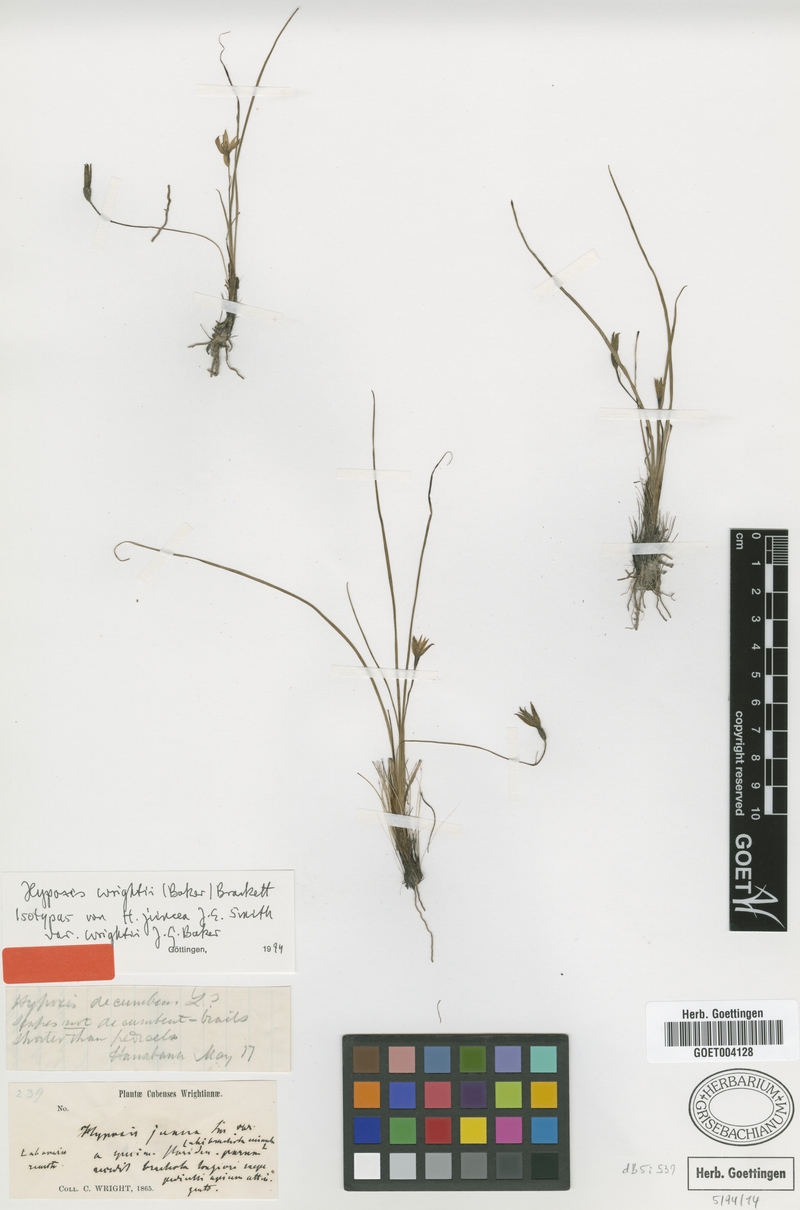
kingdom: Plantae
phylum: Tracheophyta
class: Liliopsida
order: Asparagales
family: Hypoxidaceae
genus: Hypoxis
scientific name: Hypoxis wrightii
